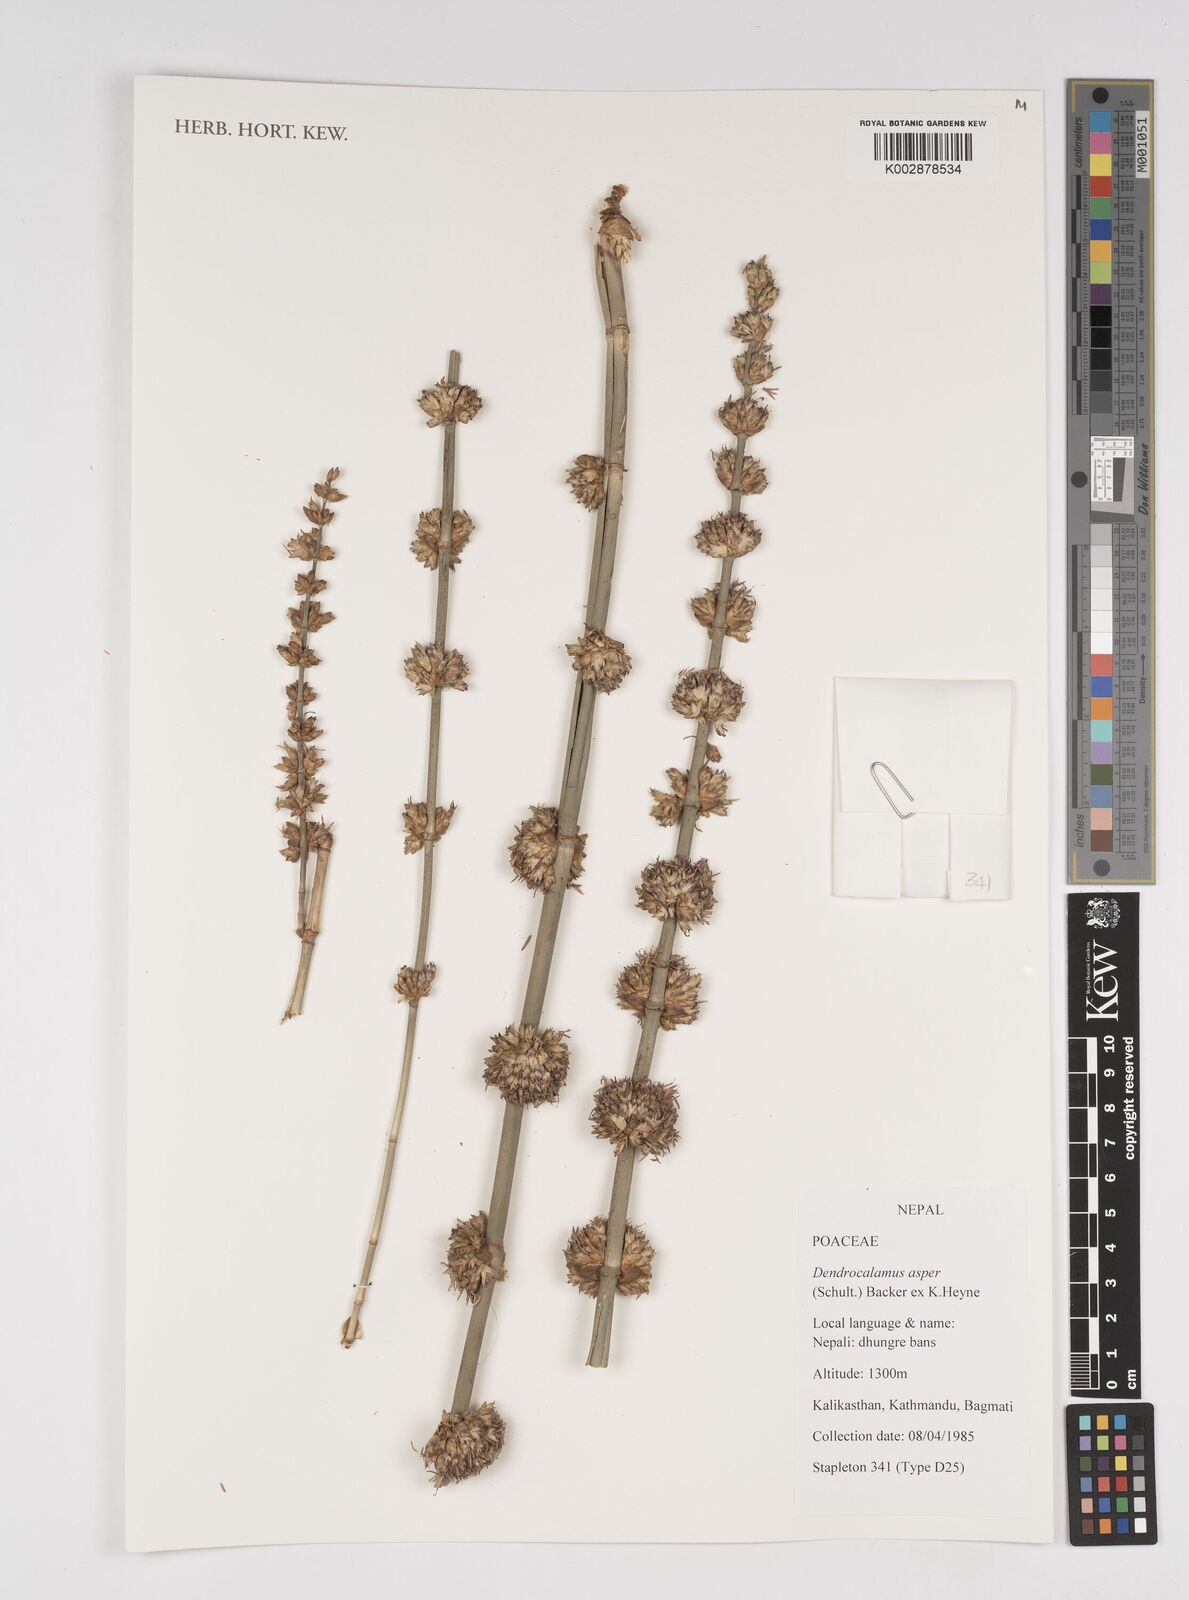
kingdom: Plantae
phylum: Tracheophyta
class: Liliopsida
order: Poales
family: Poaceae
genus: Dendrocalamus
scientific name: Dendrocalamus asper
